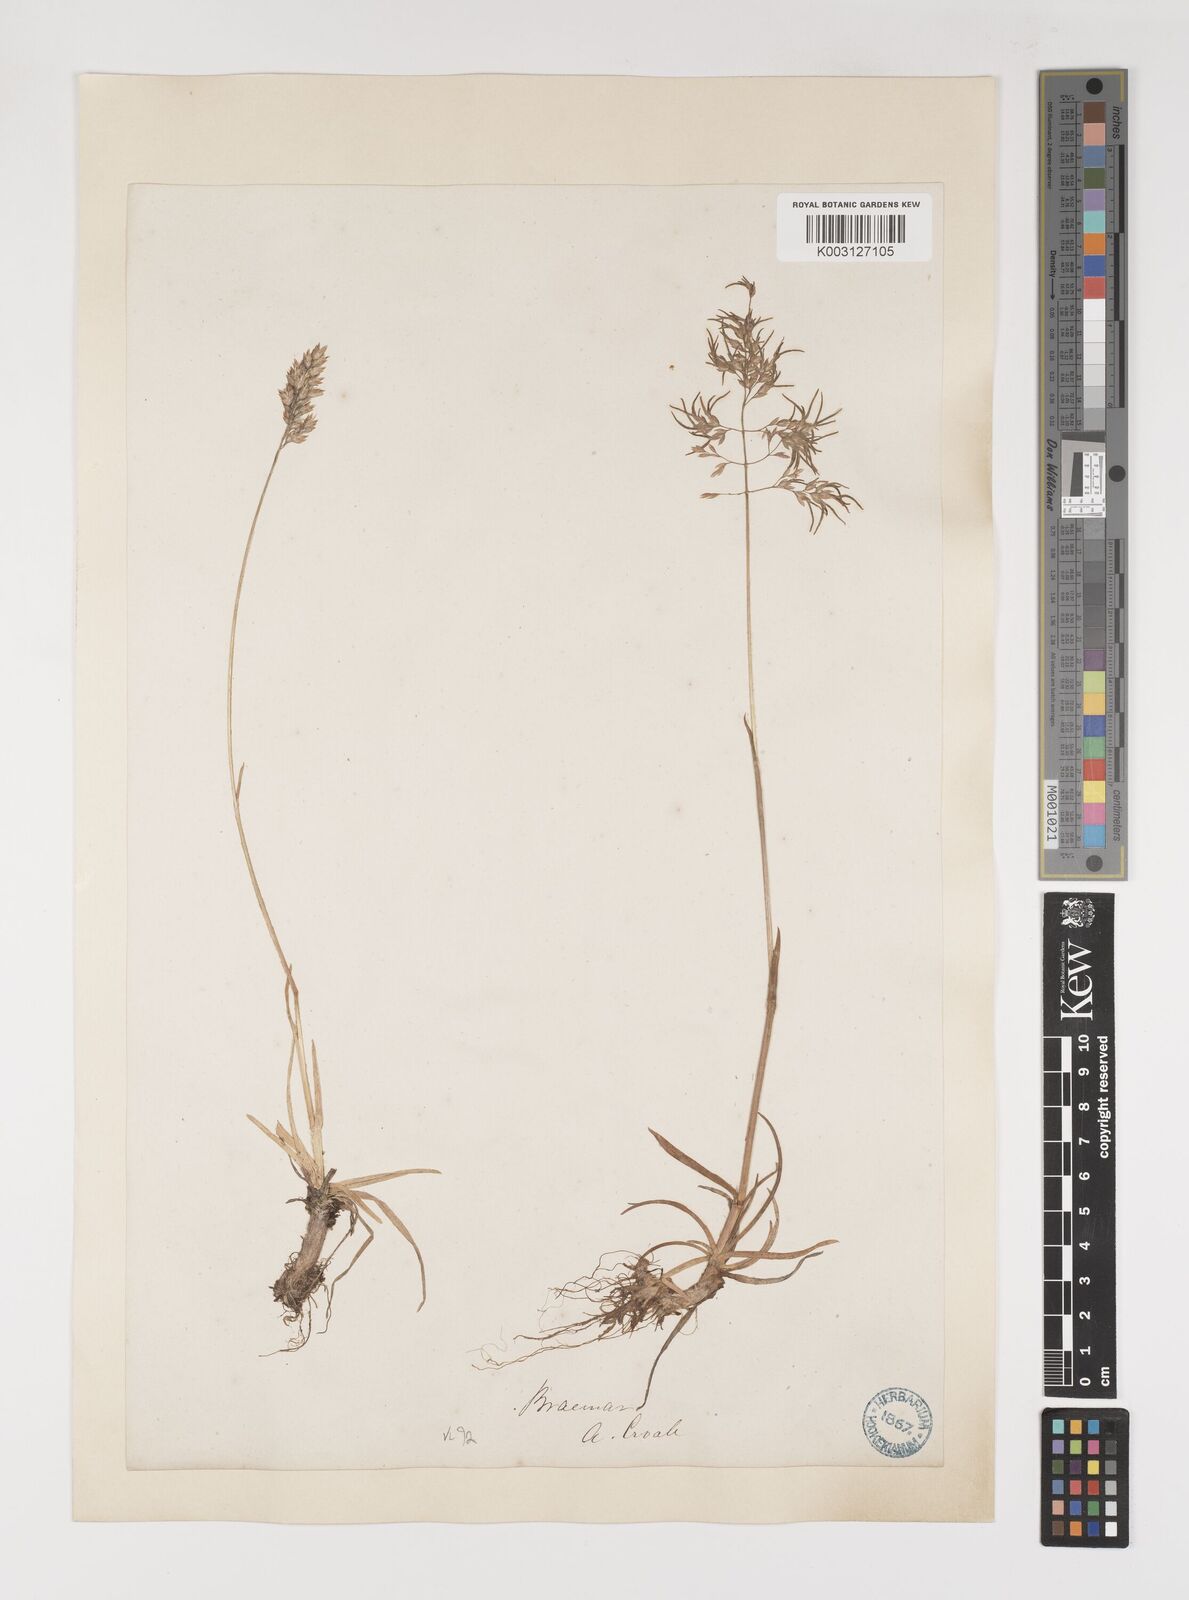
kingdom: Plantae
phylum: Tracheophyta
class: Liliopsida
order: Poales
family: Poaceae
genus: Poa
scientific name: Poa alpina
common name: Alpine bluegrass
